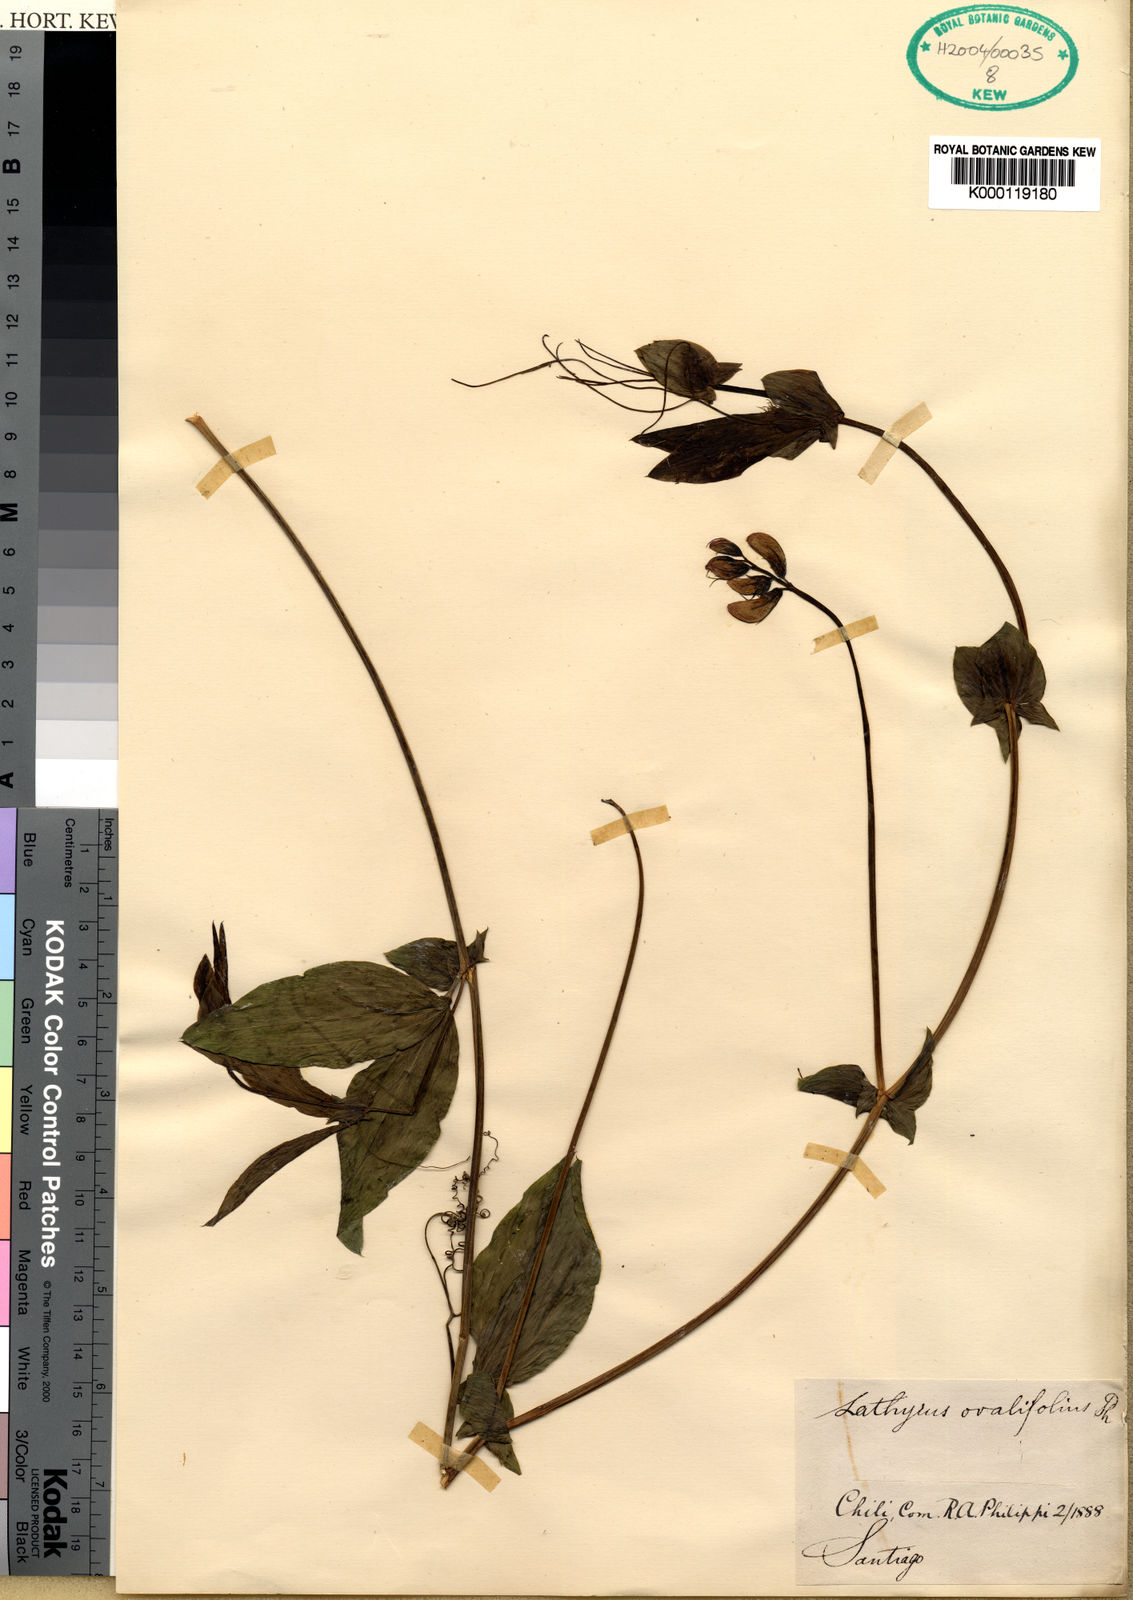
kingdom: Plantae
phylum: Tracheophyta
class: Magnoliopsida
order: Fabales
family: Fabaceae
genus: Lathyrus
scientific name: Lathyrus hookeri
